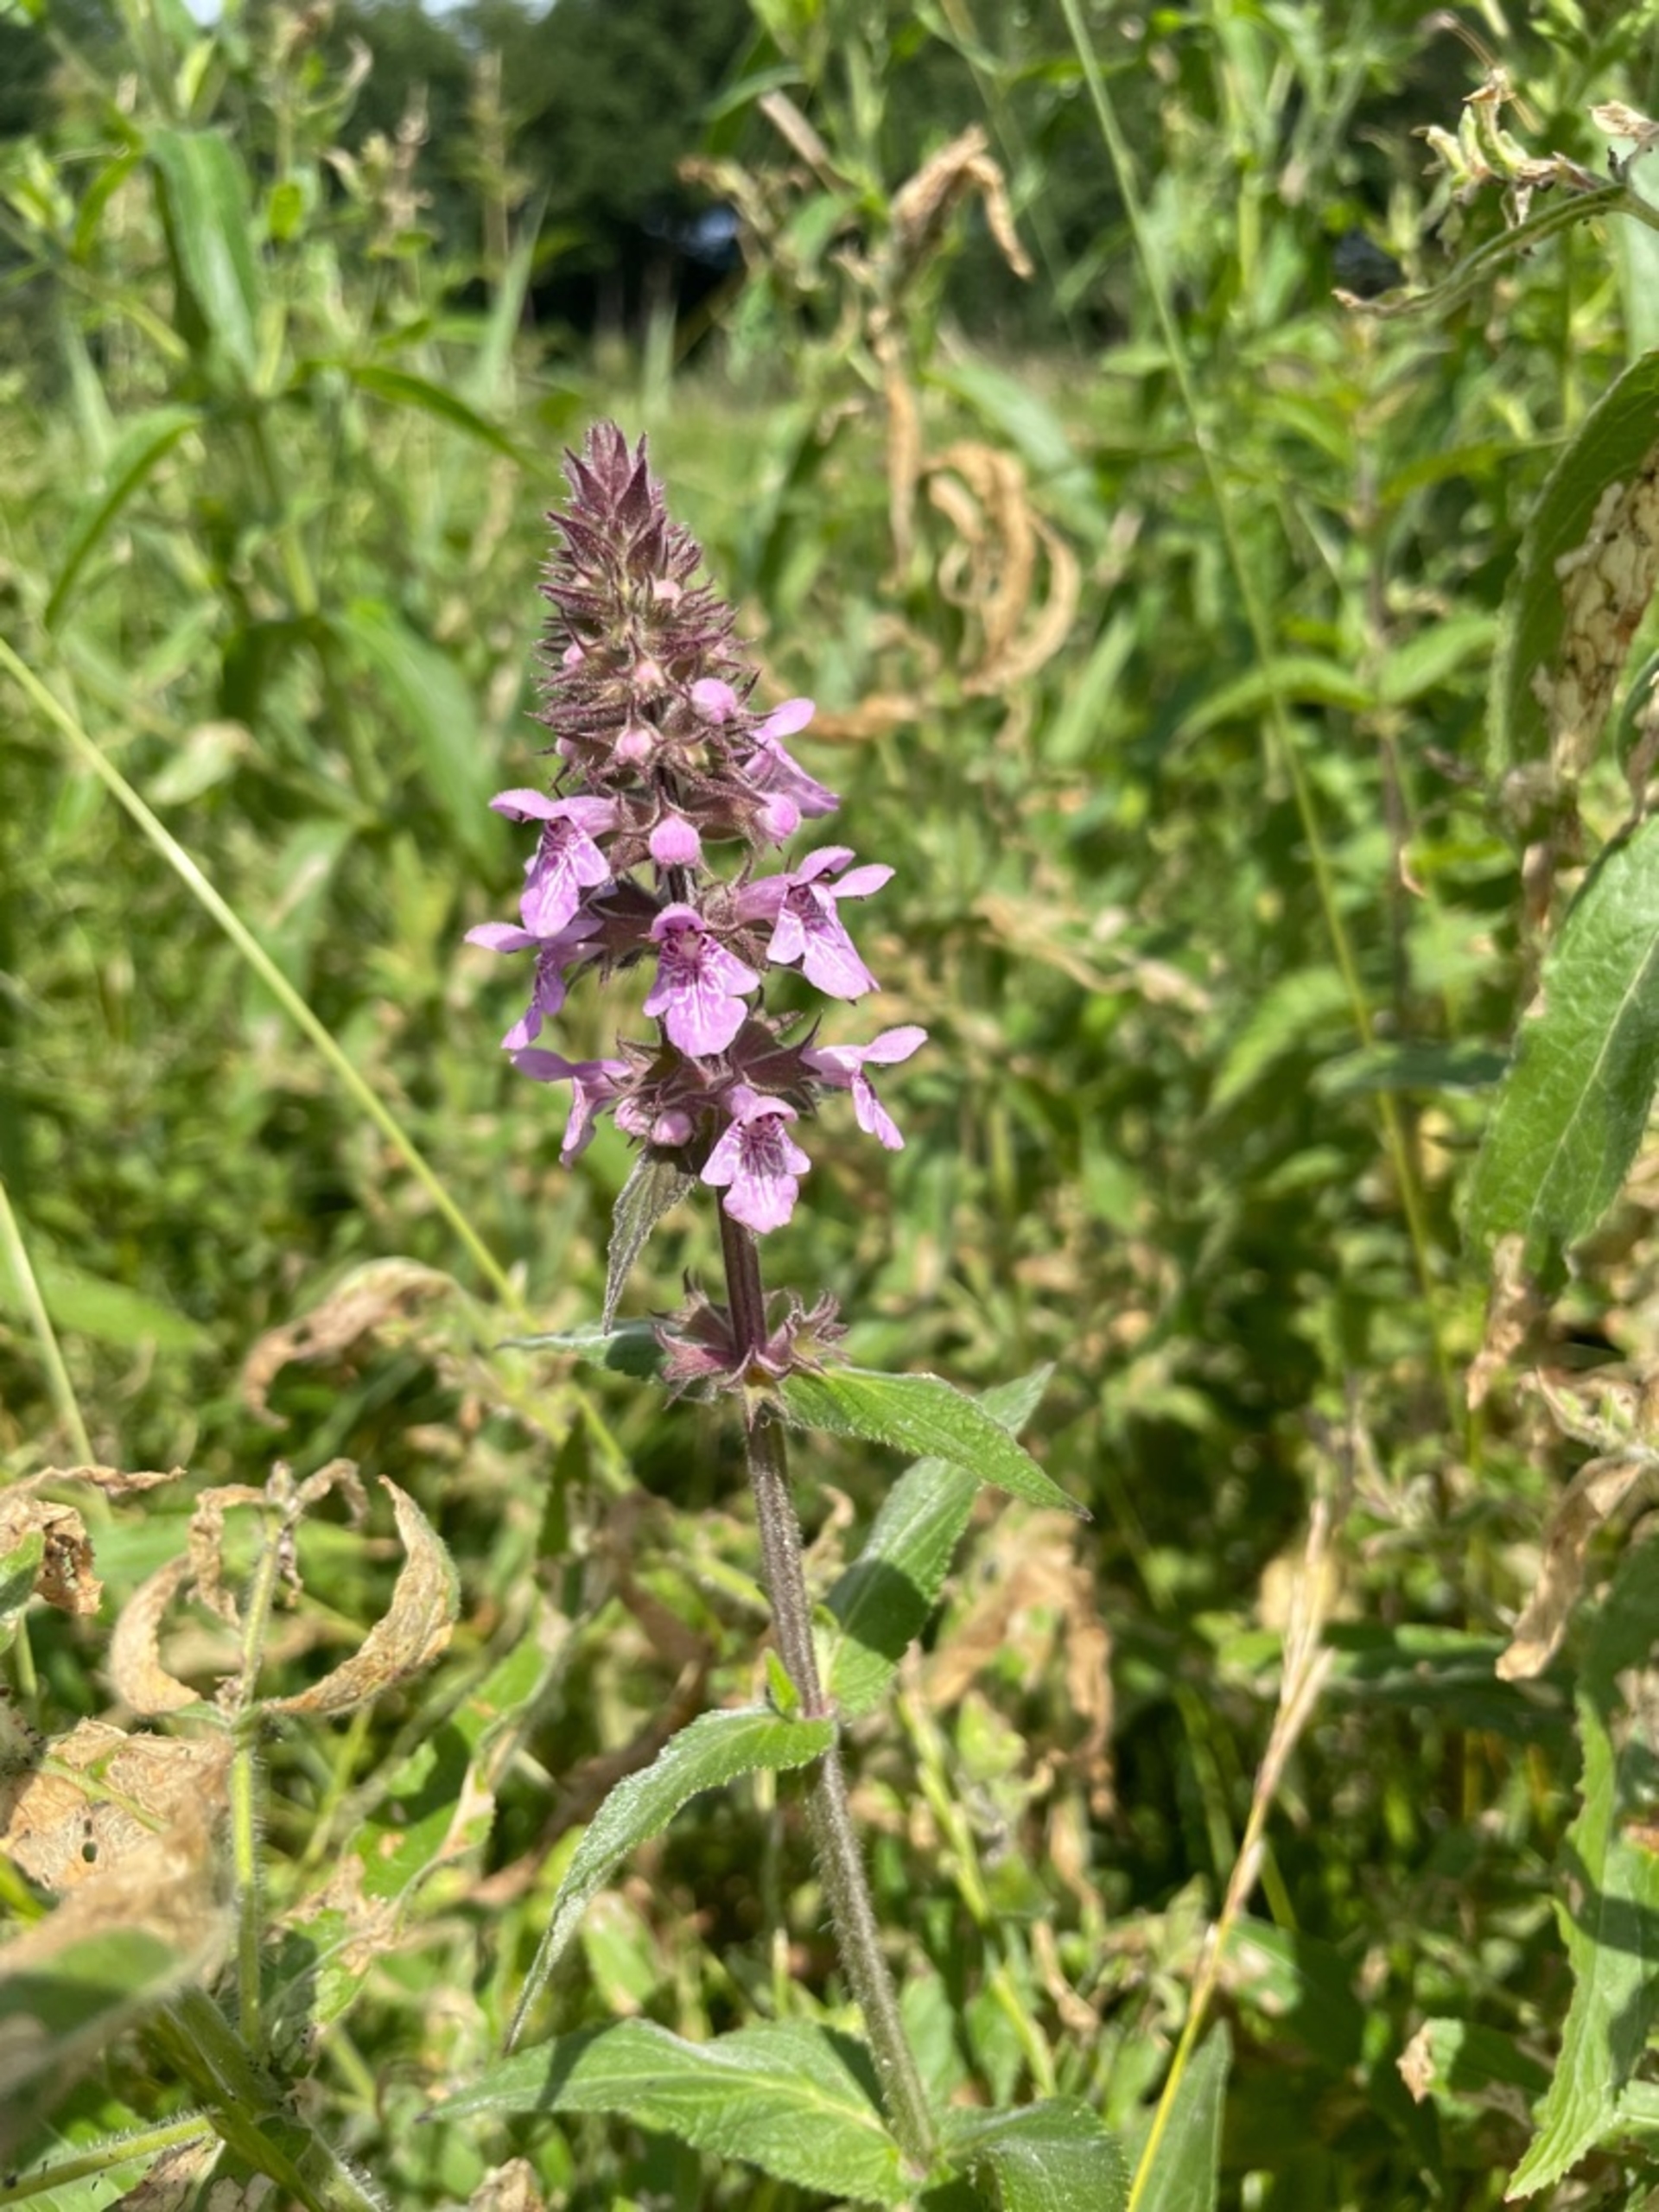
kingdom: Plantae
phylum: Tracheophyta
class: Magnoliopsida
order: Lamiales
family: Lamiaceae
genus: Stachys
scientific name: Stachys palustris
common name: Kær-galtetand
